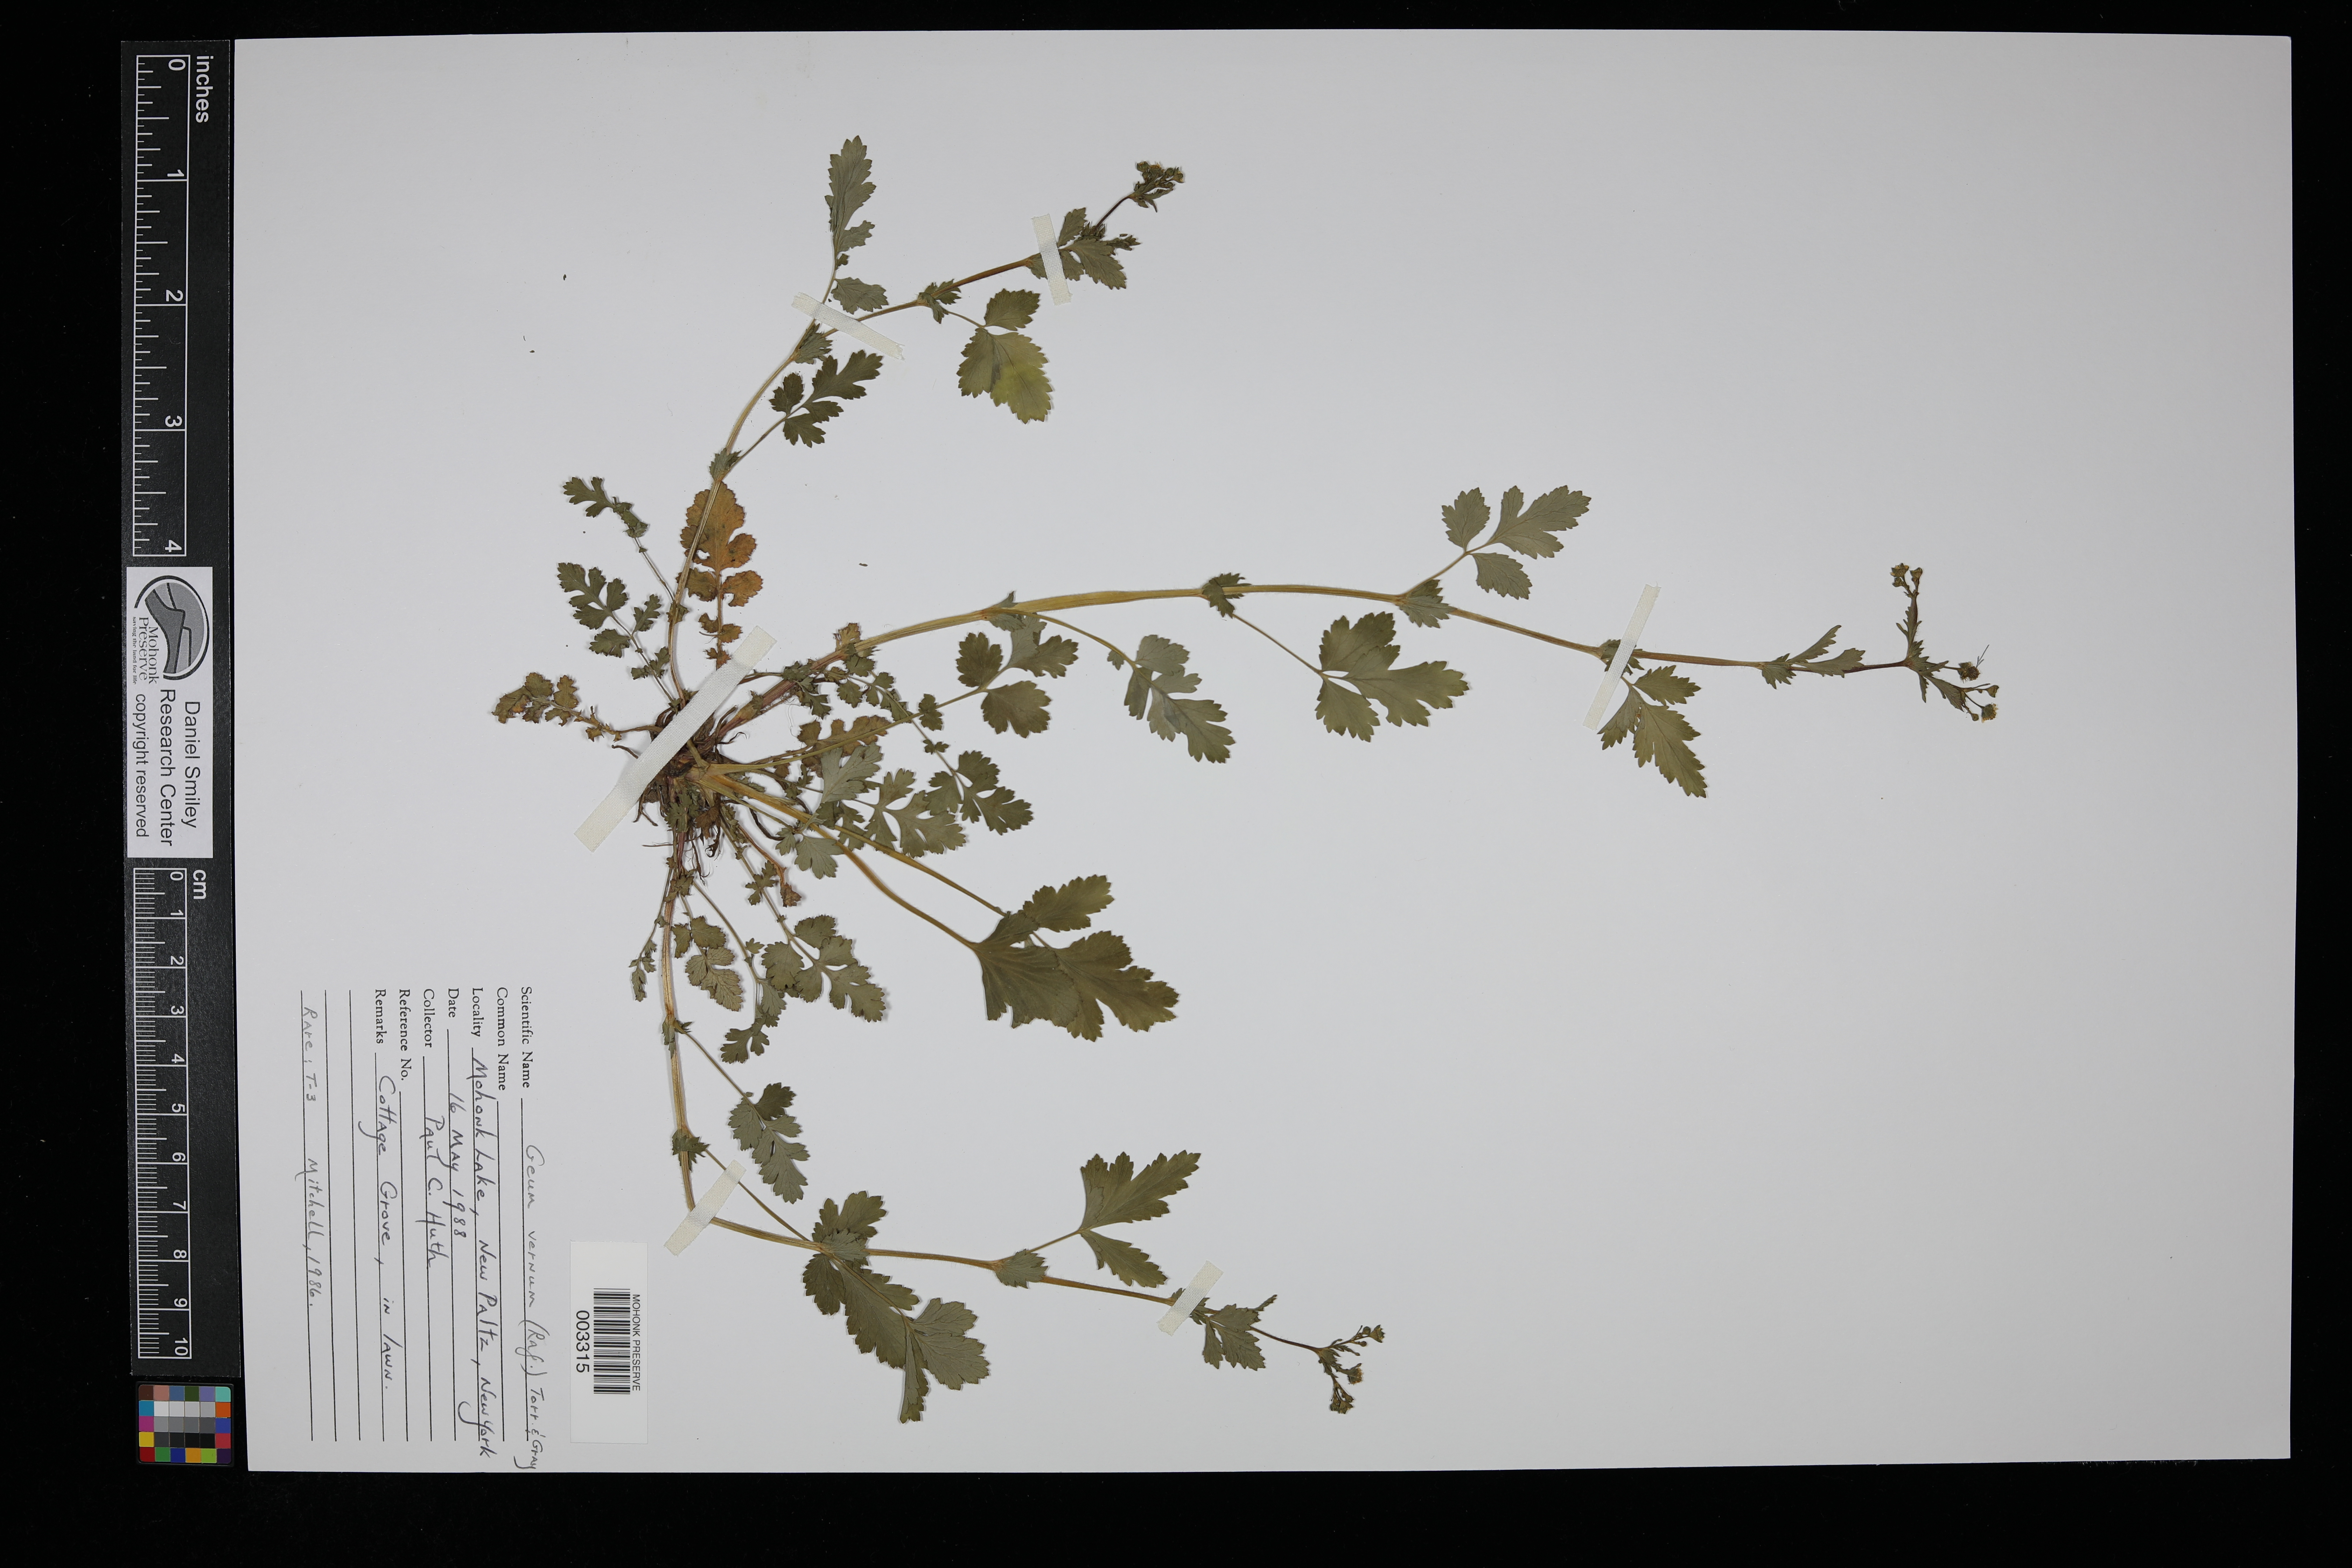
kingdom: Plantae
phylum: Tracheophyta
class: Magnoliopsida
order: Rosales
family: Rosaceae
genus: Geum
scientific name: Geum vernum
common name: Spring avens
